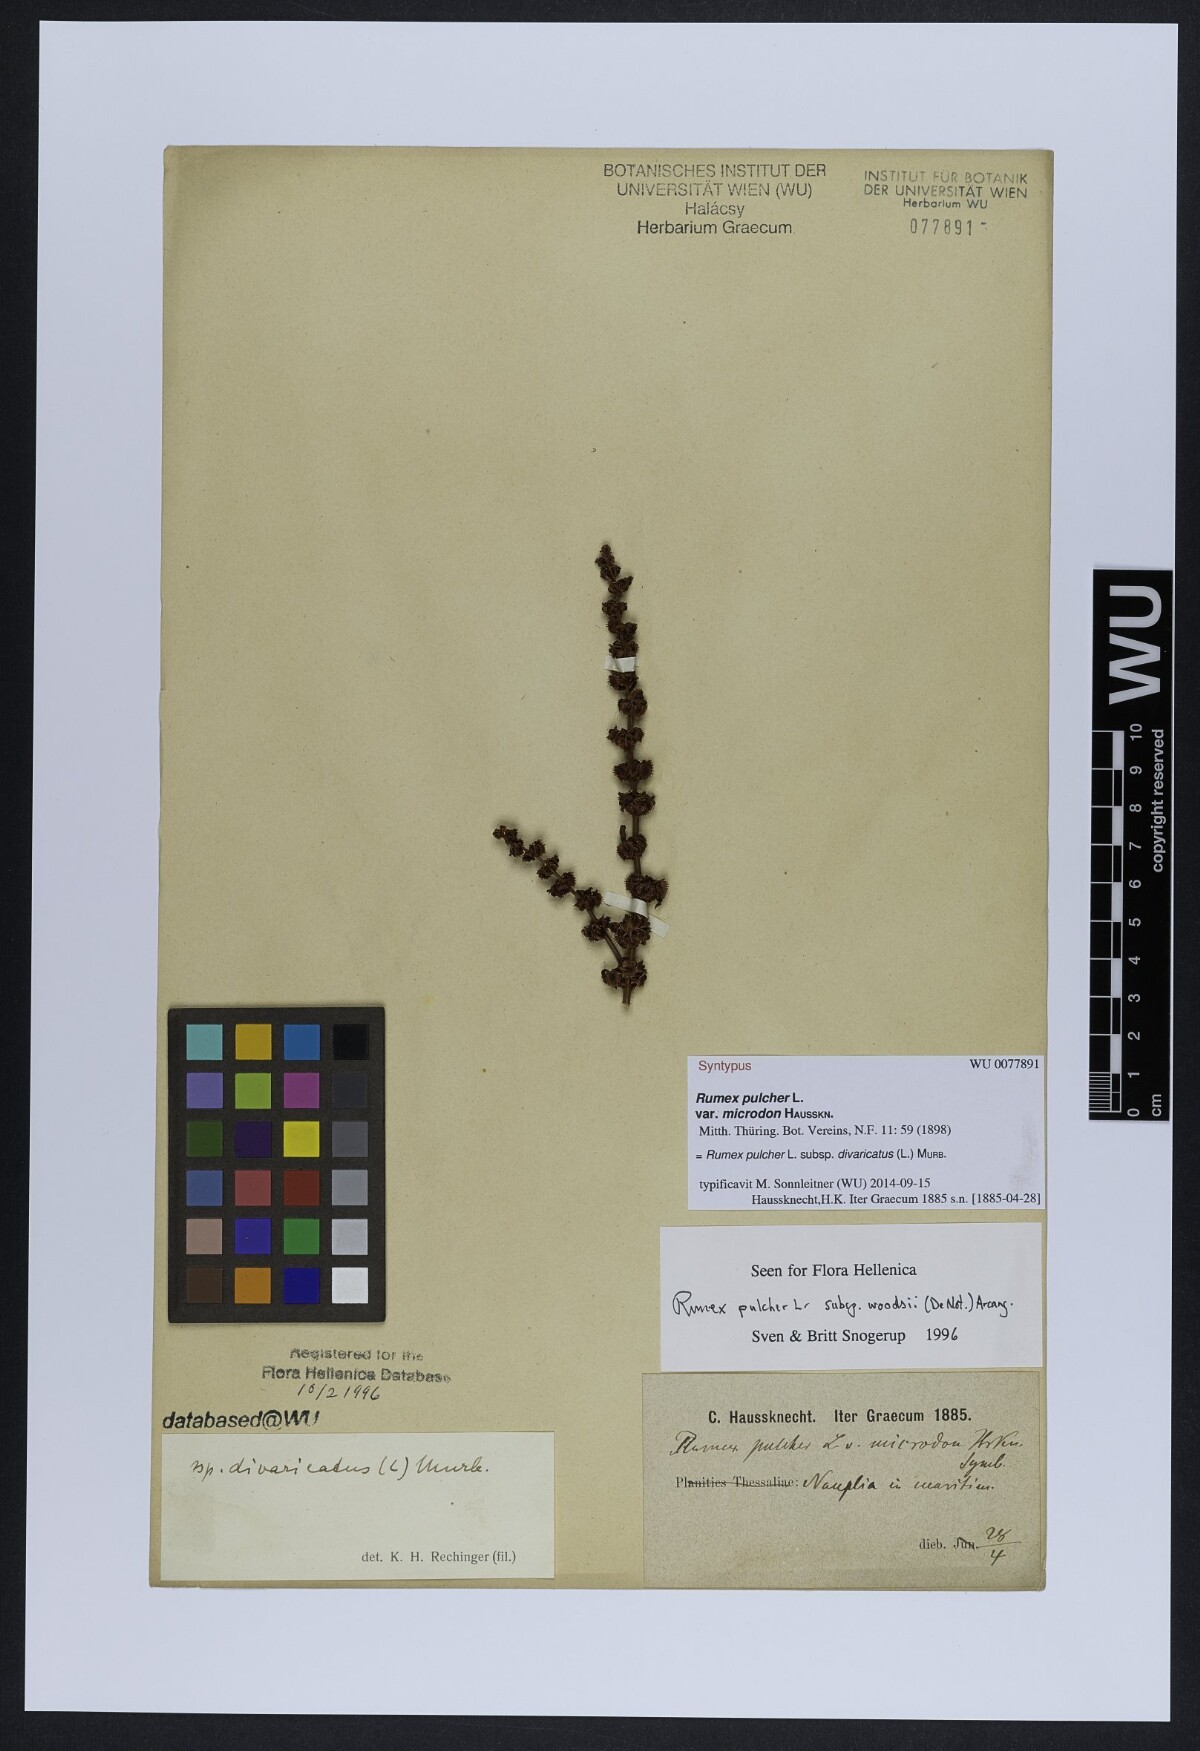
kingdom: Plantae
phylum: Tracheophyta
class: Magnoliopsida
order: Caryophyllales
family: Polygonaceae
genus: Rumex
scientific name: Rumex pulcher
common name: Fiddle dock
